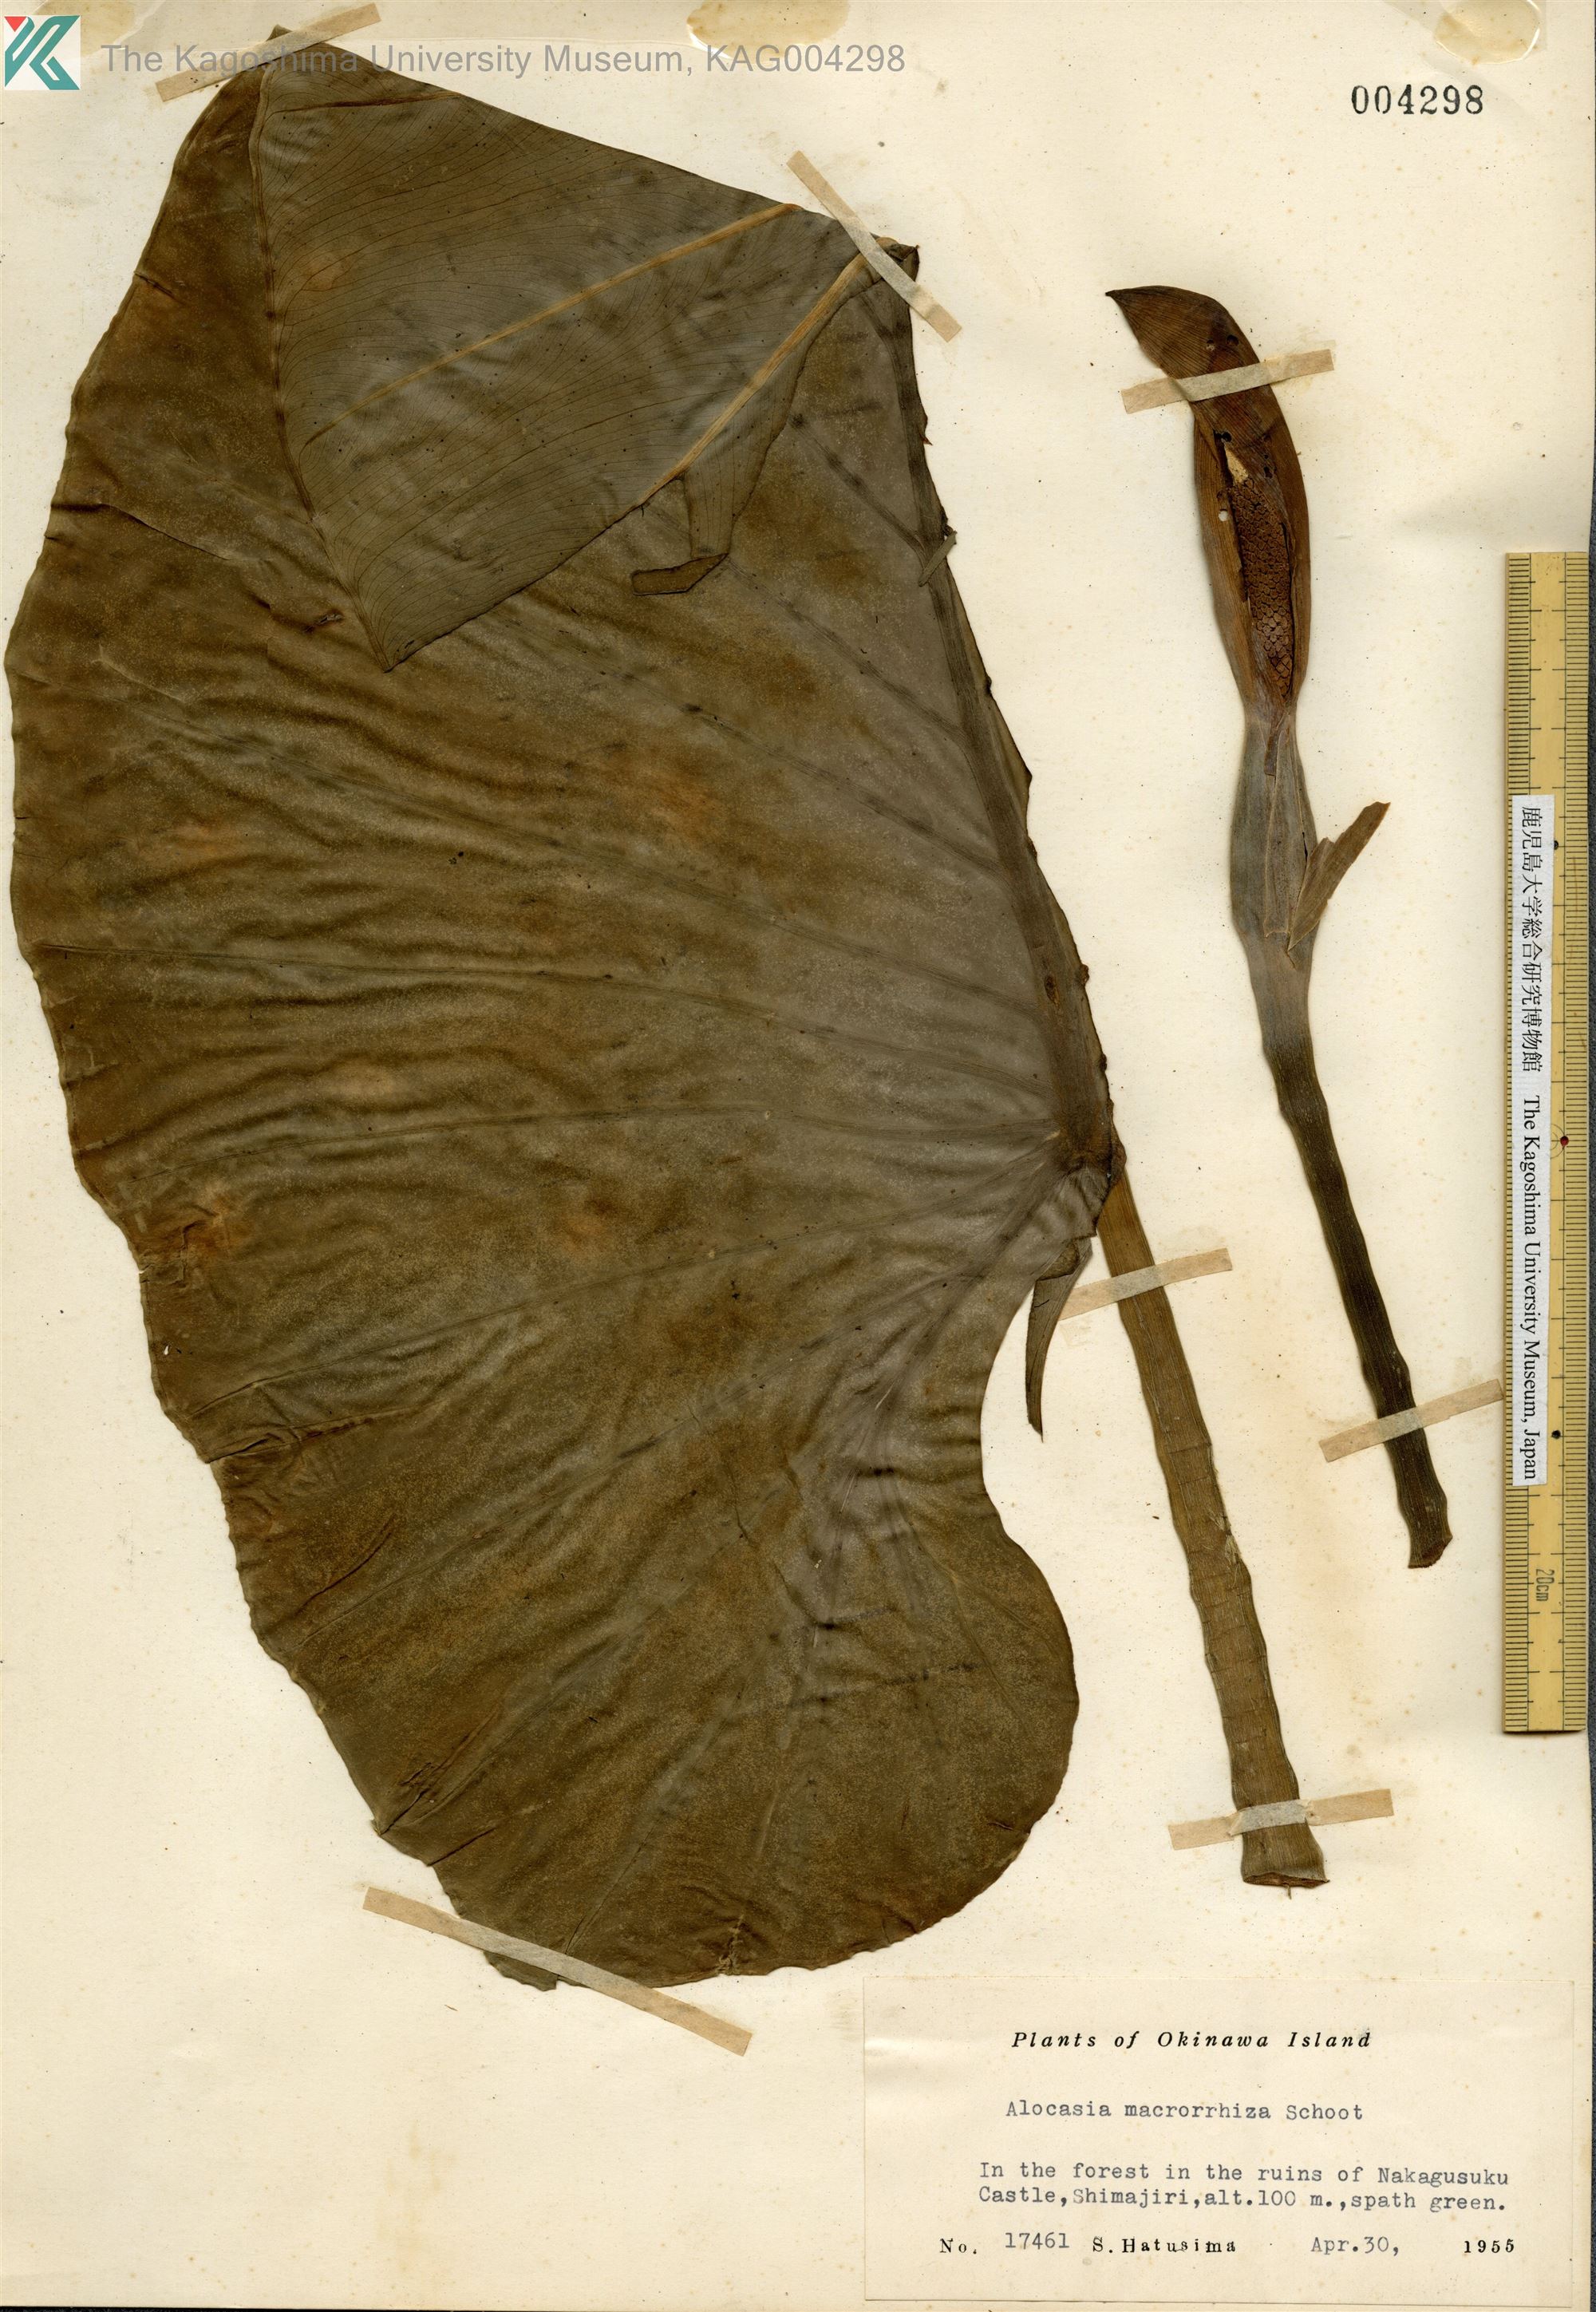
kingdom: Plantae
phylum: Tracheophyta
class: Liliopsida
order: Alismatales
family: Araceae
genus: Alocasia
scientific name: Alocasia odora
